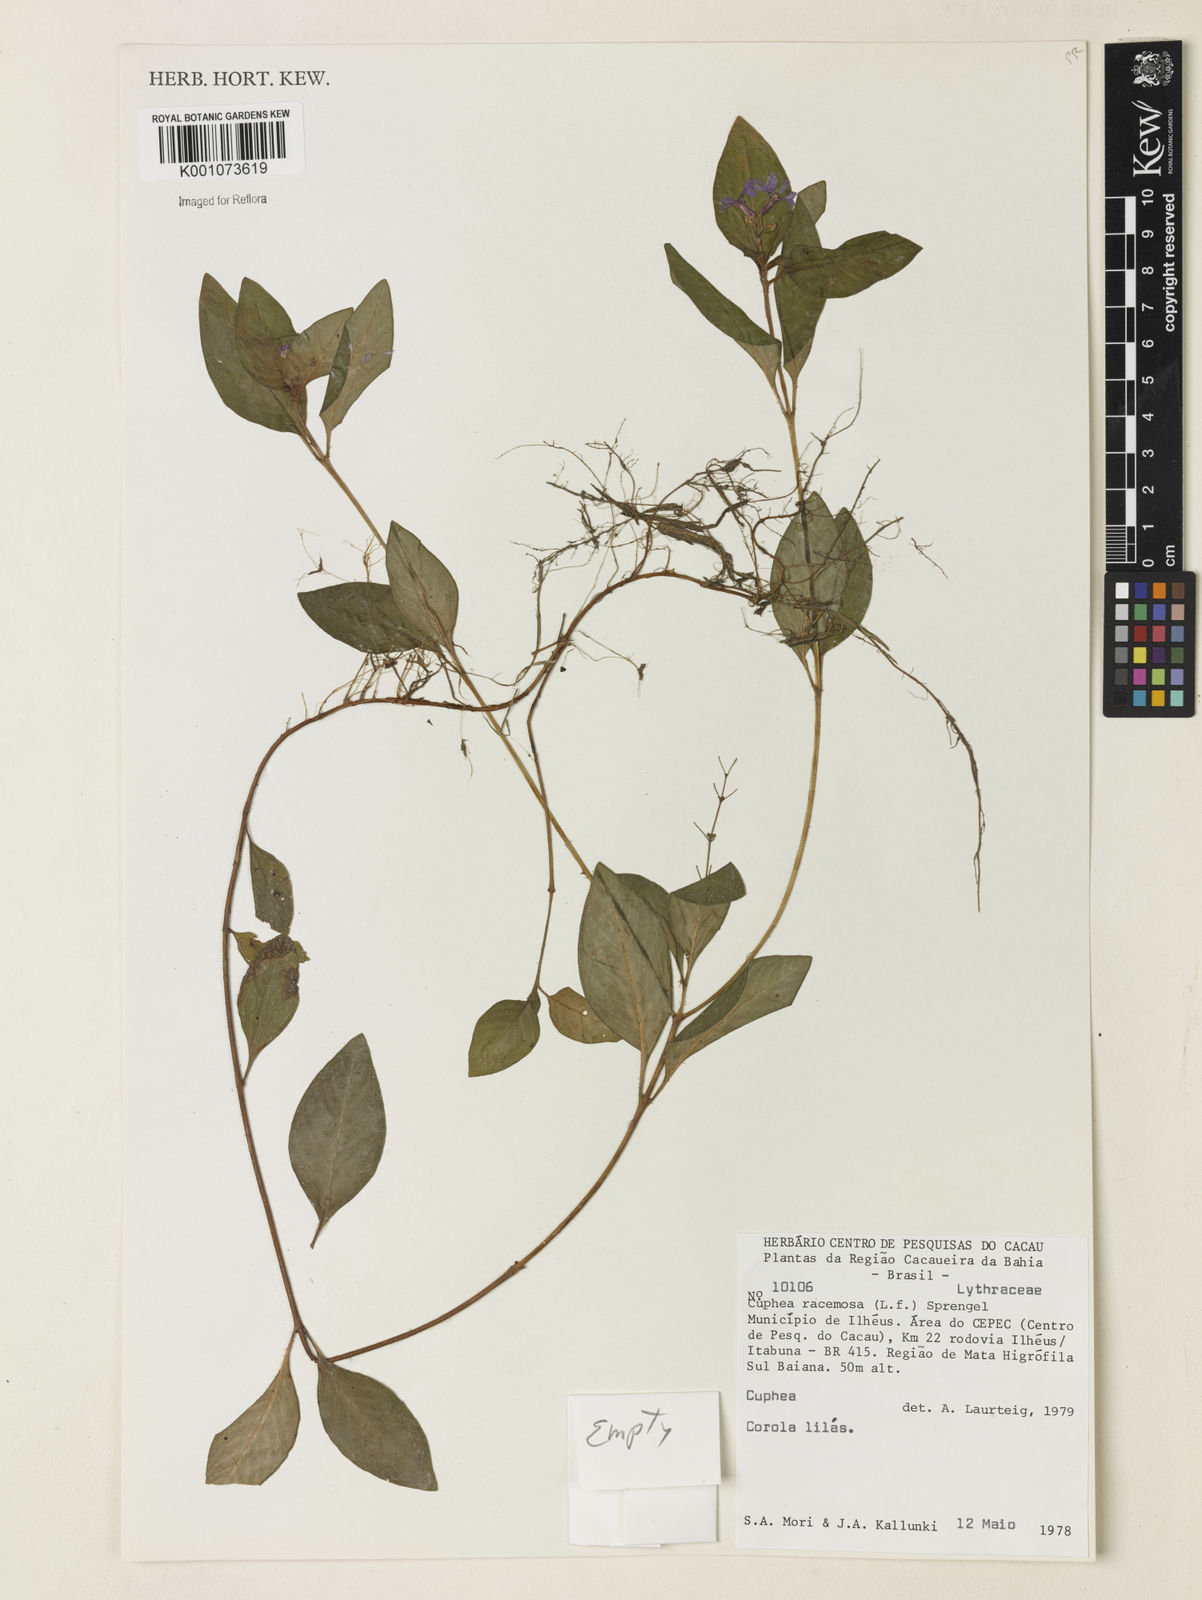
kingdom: Plantae
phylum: Tracheophyta
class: Magnoliopsida
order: Myrtales
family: Lythraceae
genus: Cuphea
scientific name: Cuphea racemosa
